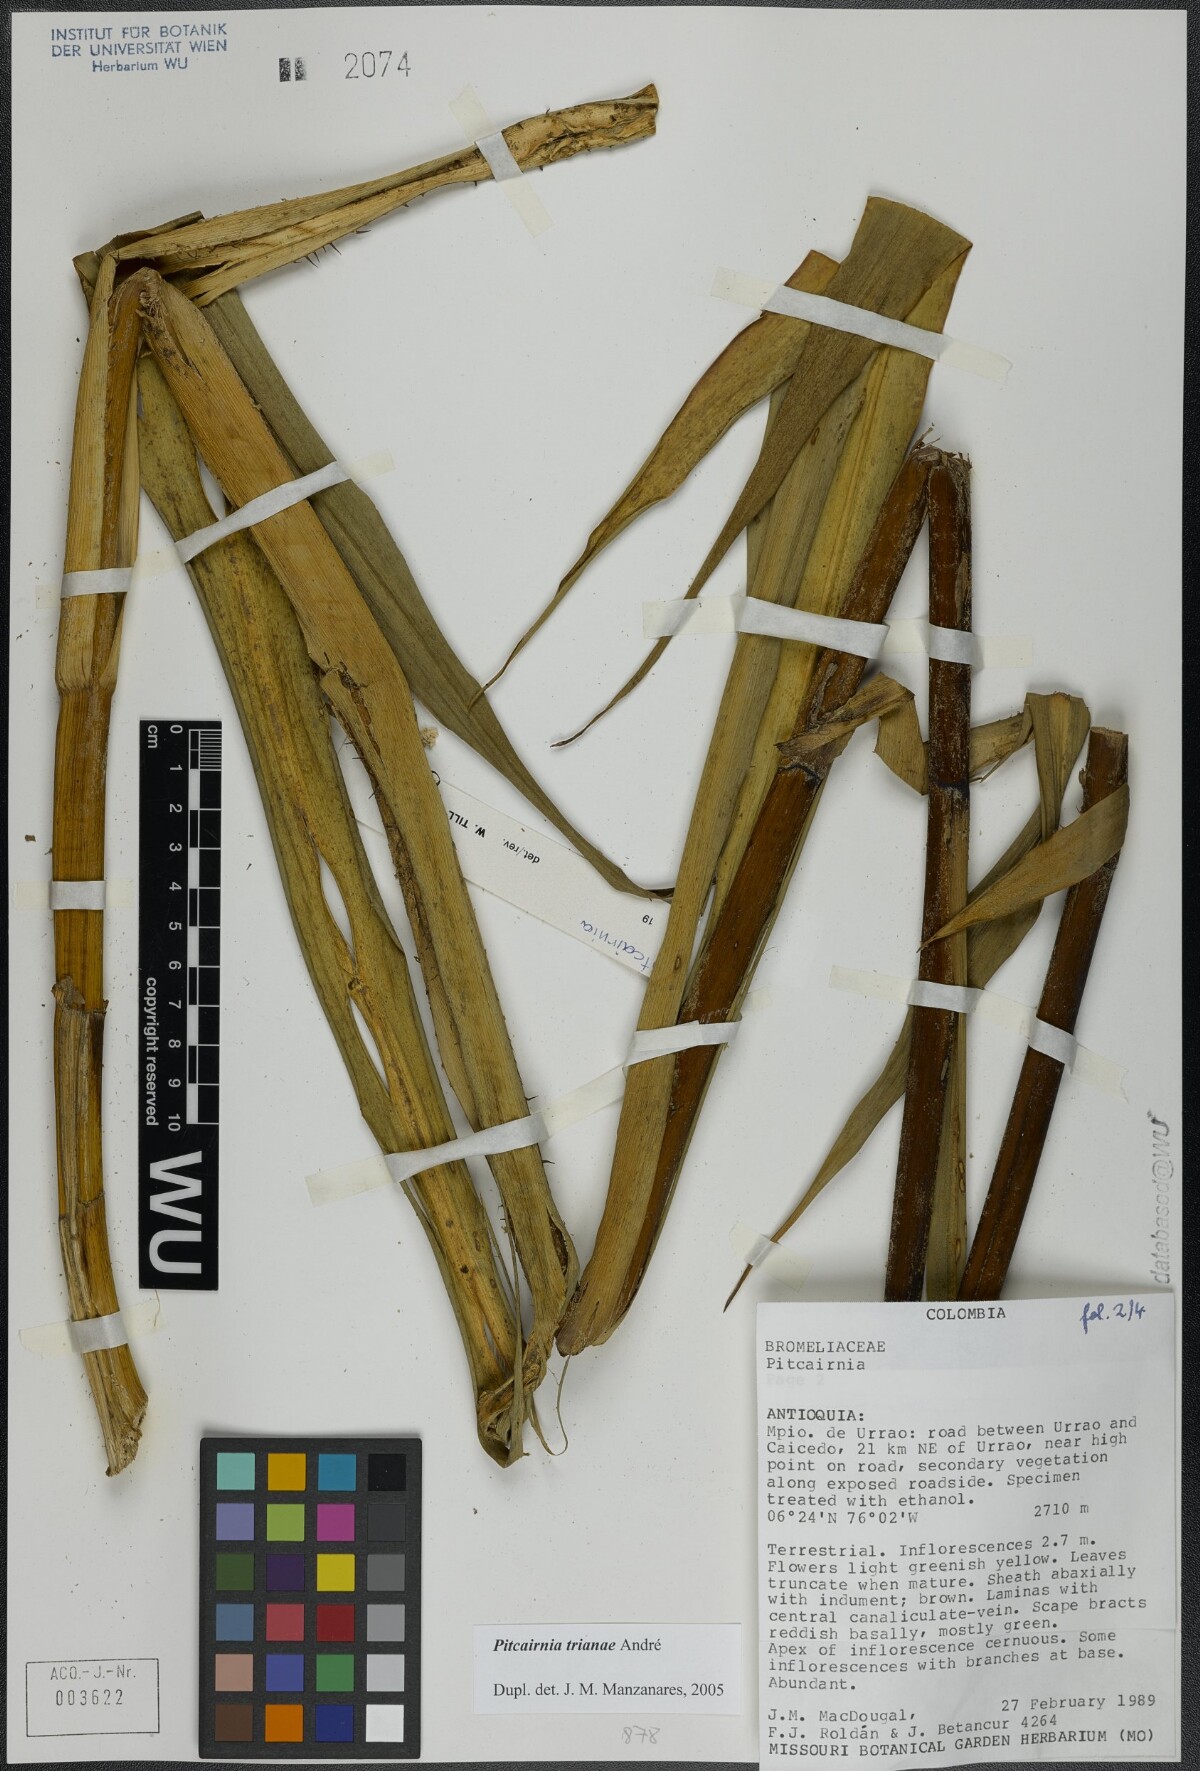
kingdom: Plantae
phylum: Tracheophyta
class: Liliopsida
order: Poales
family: Bromeliaceae
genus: Pitcairnia
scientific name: Pitcairnia trianae
